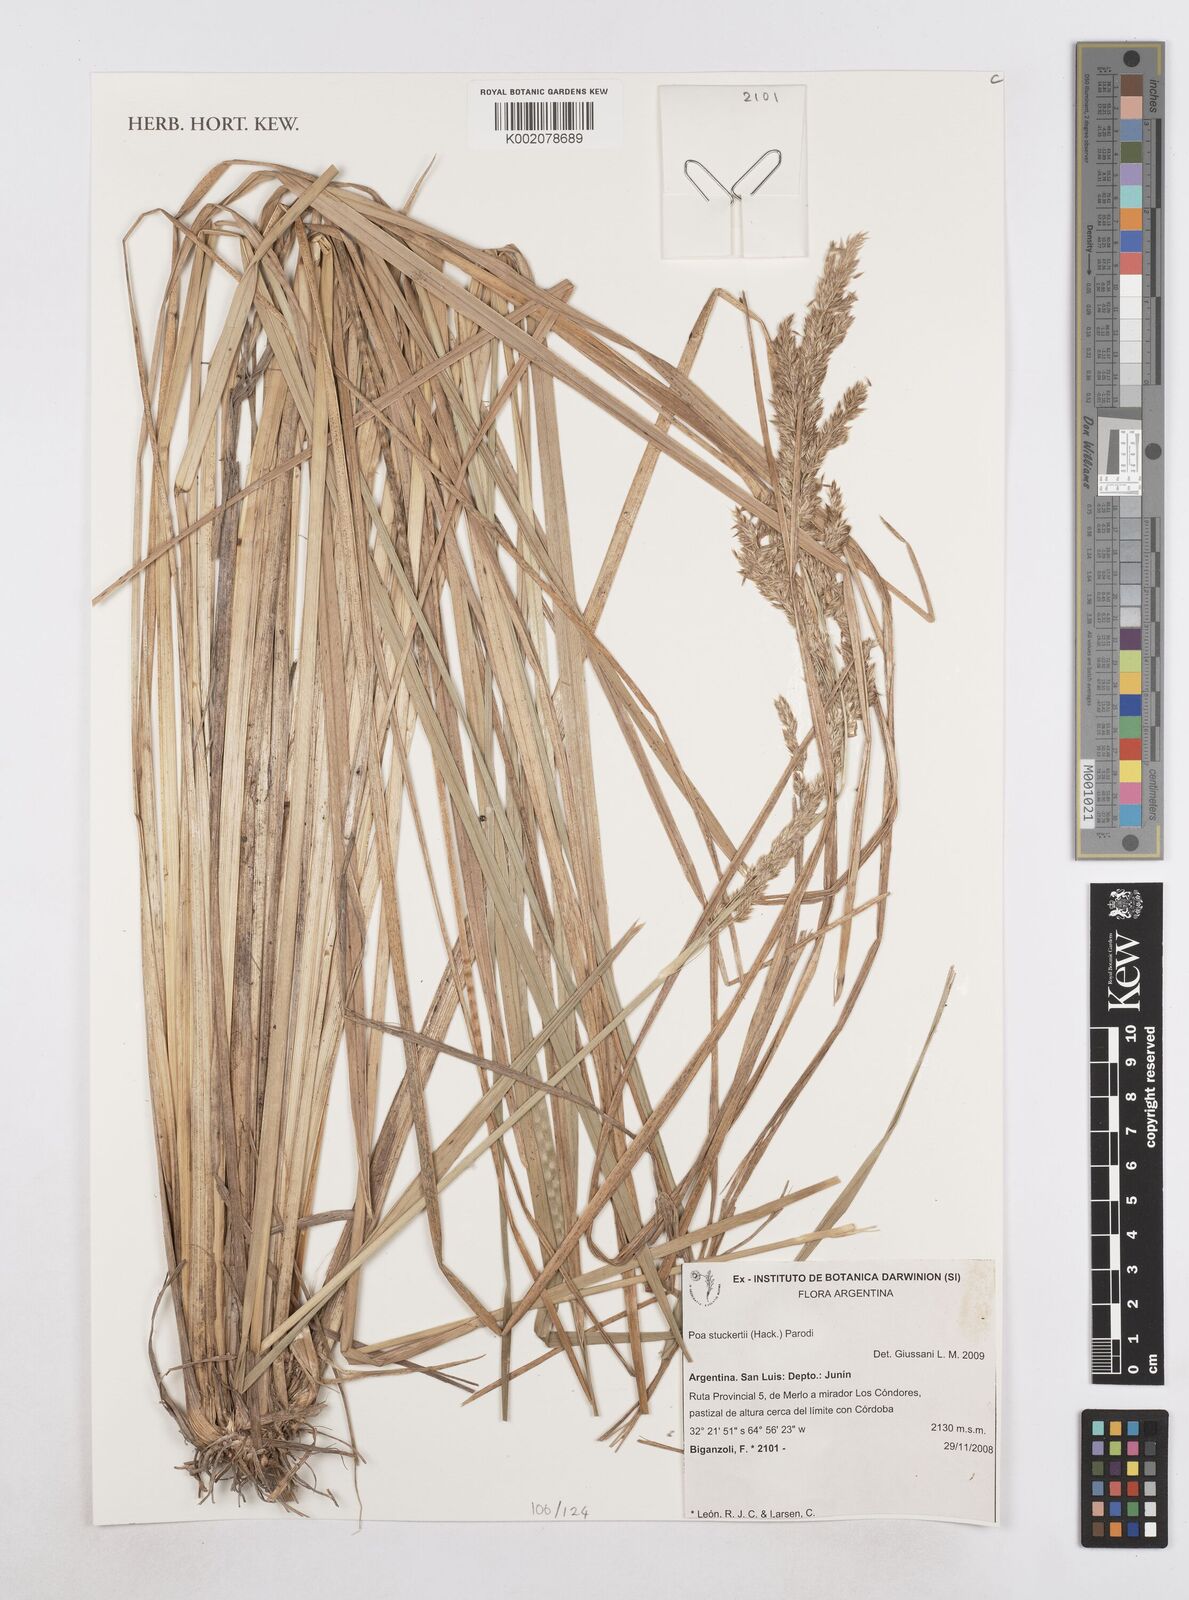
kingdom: Plantae
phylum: Tracheophyta
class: Liliopsida
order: Poales
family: Poaceae
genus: Poa
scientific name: Poa stuckertii
